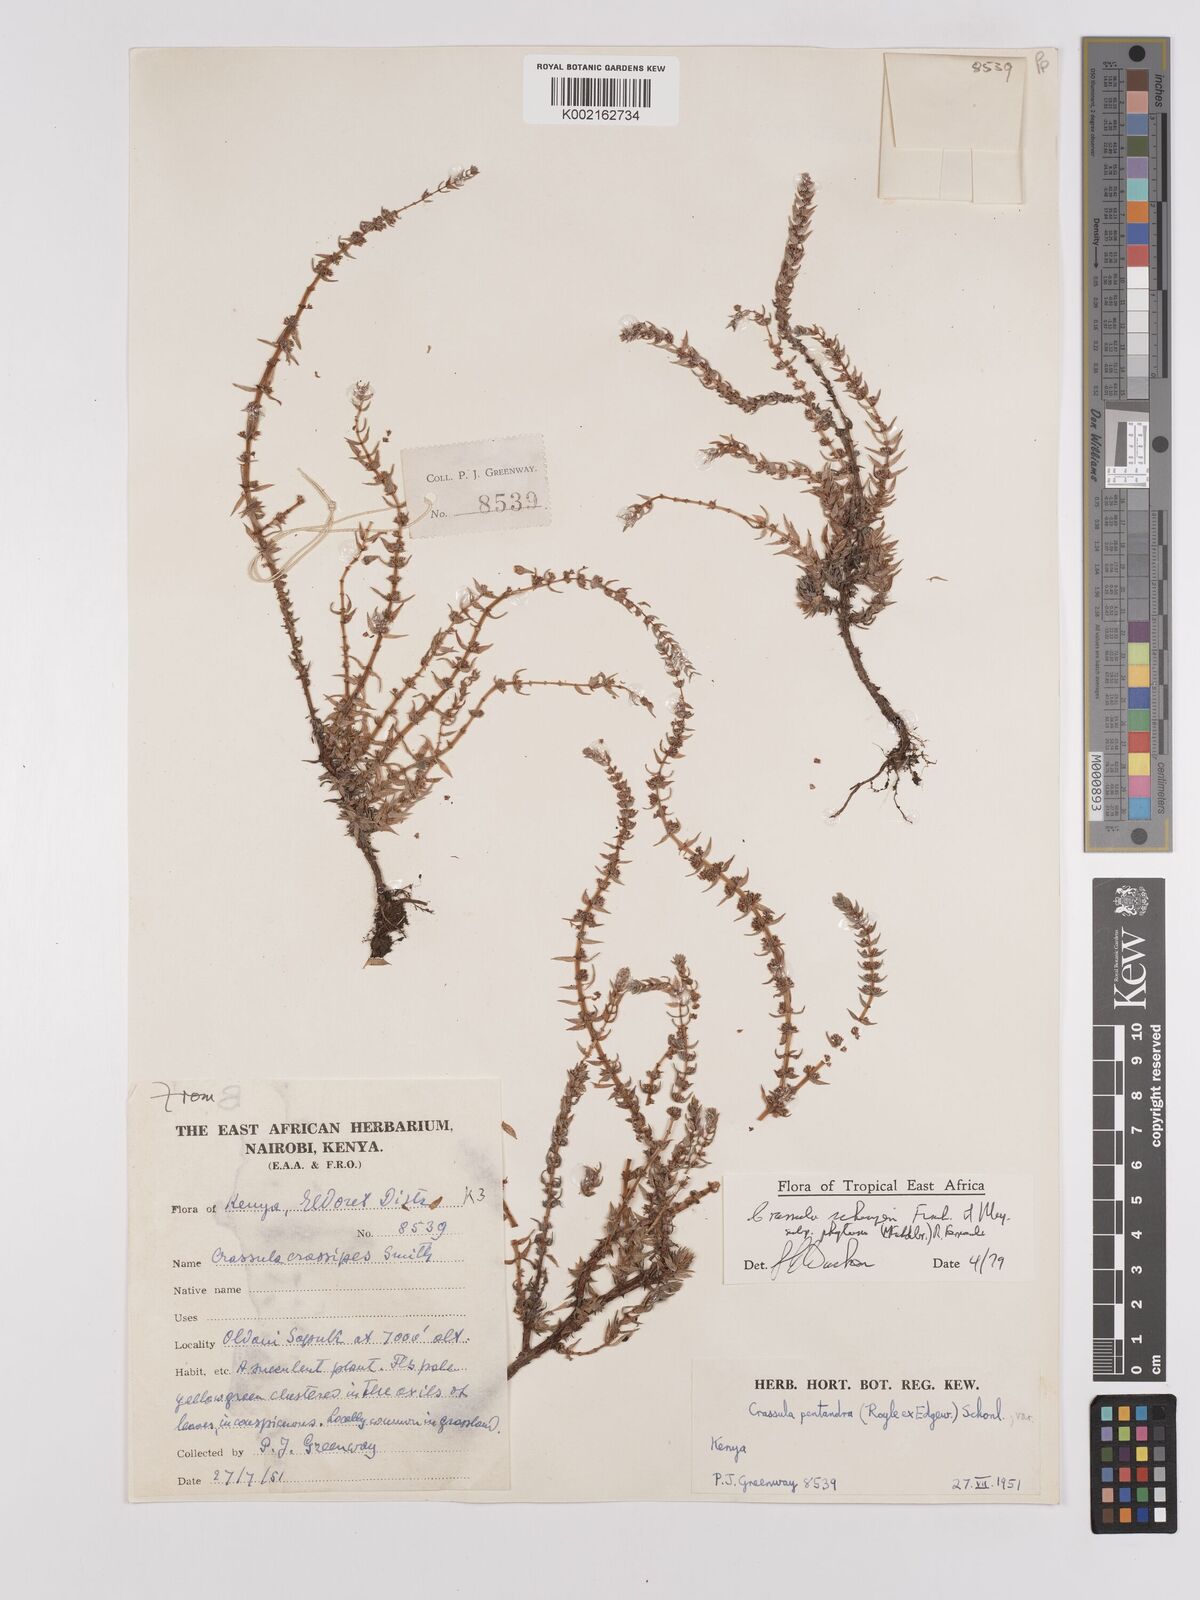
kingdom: Plantae
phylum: Tracheophyta
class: Magnoliopsida
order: Saxifragales
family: Crassulaceae
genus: Crassula
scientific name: Crassula schimperi
